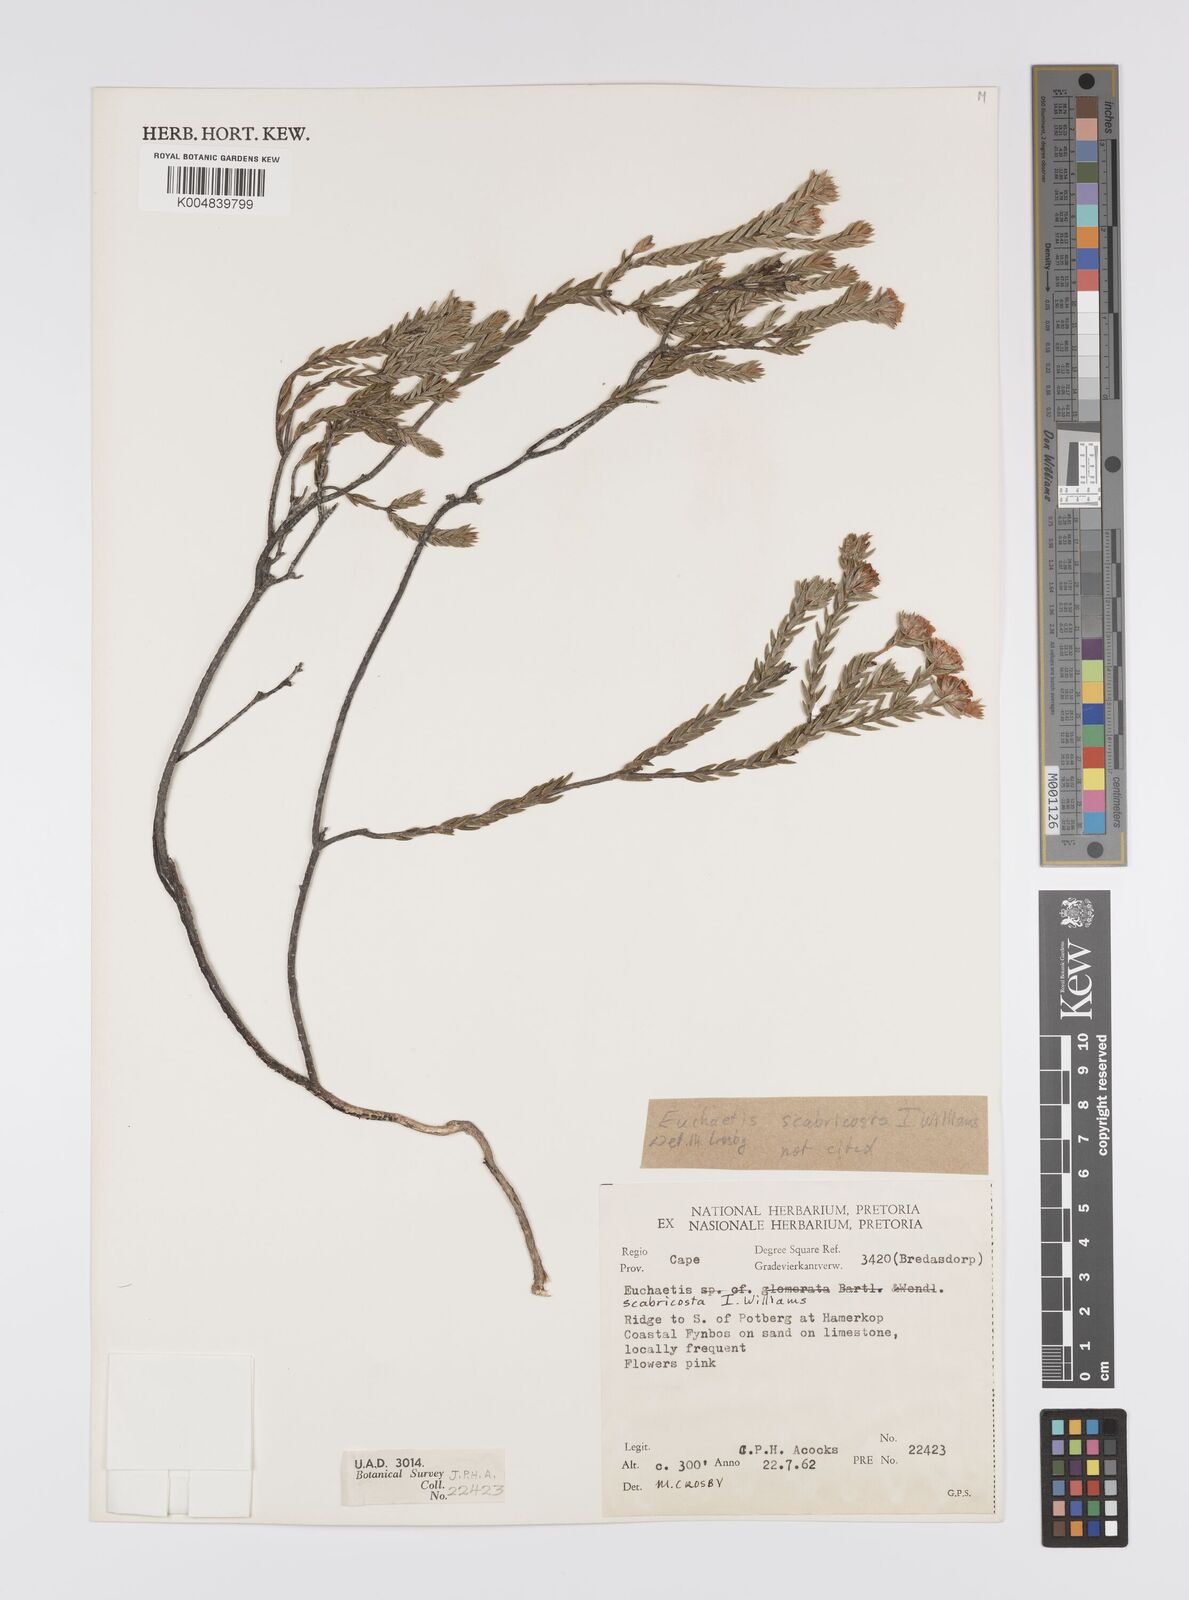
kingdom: Plantae
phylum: Tracheophyta
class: Magnoliopsida
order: Sapindales
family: Rutaceae
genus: Euchaetis
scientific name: Euchaetis scabricosta
